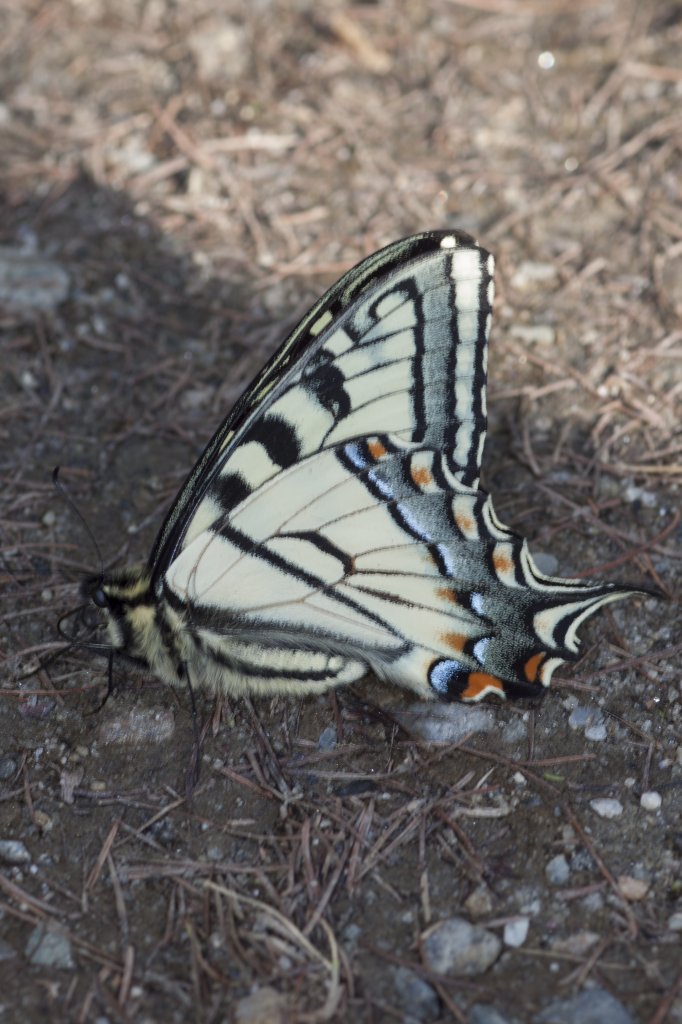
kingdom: Animalia
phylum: Arthropoda
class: Insecta
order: Lepidoptera
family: Papilionidae
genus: Pterourus
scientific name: Pterourus canadensis
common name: Canadian Tiger Swallowtail
